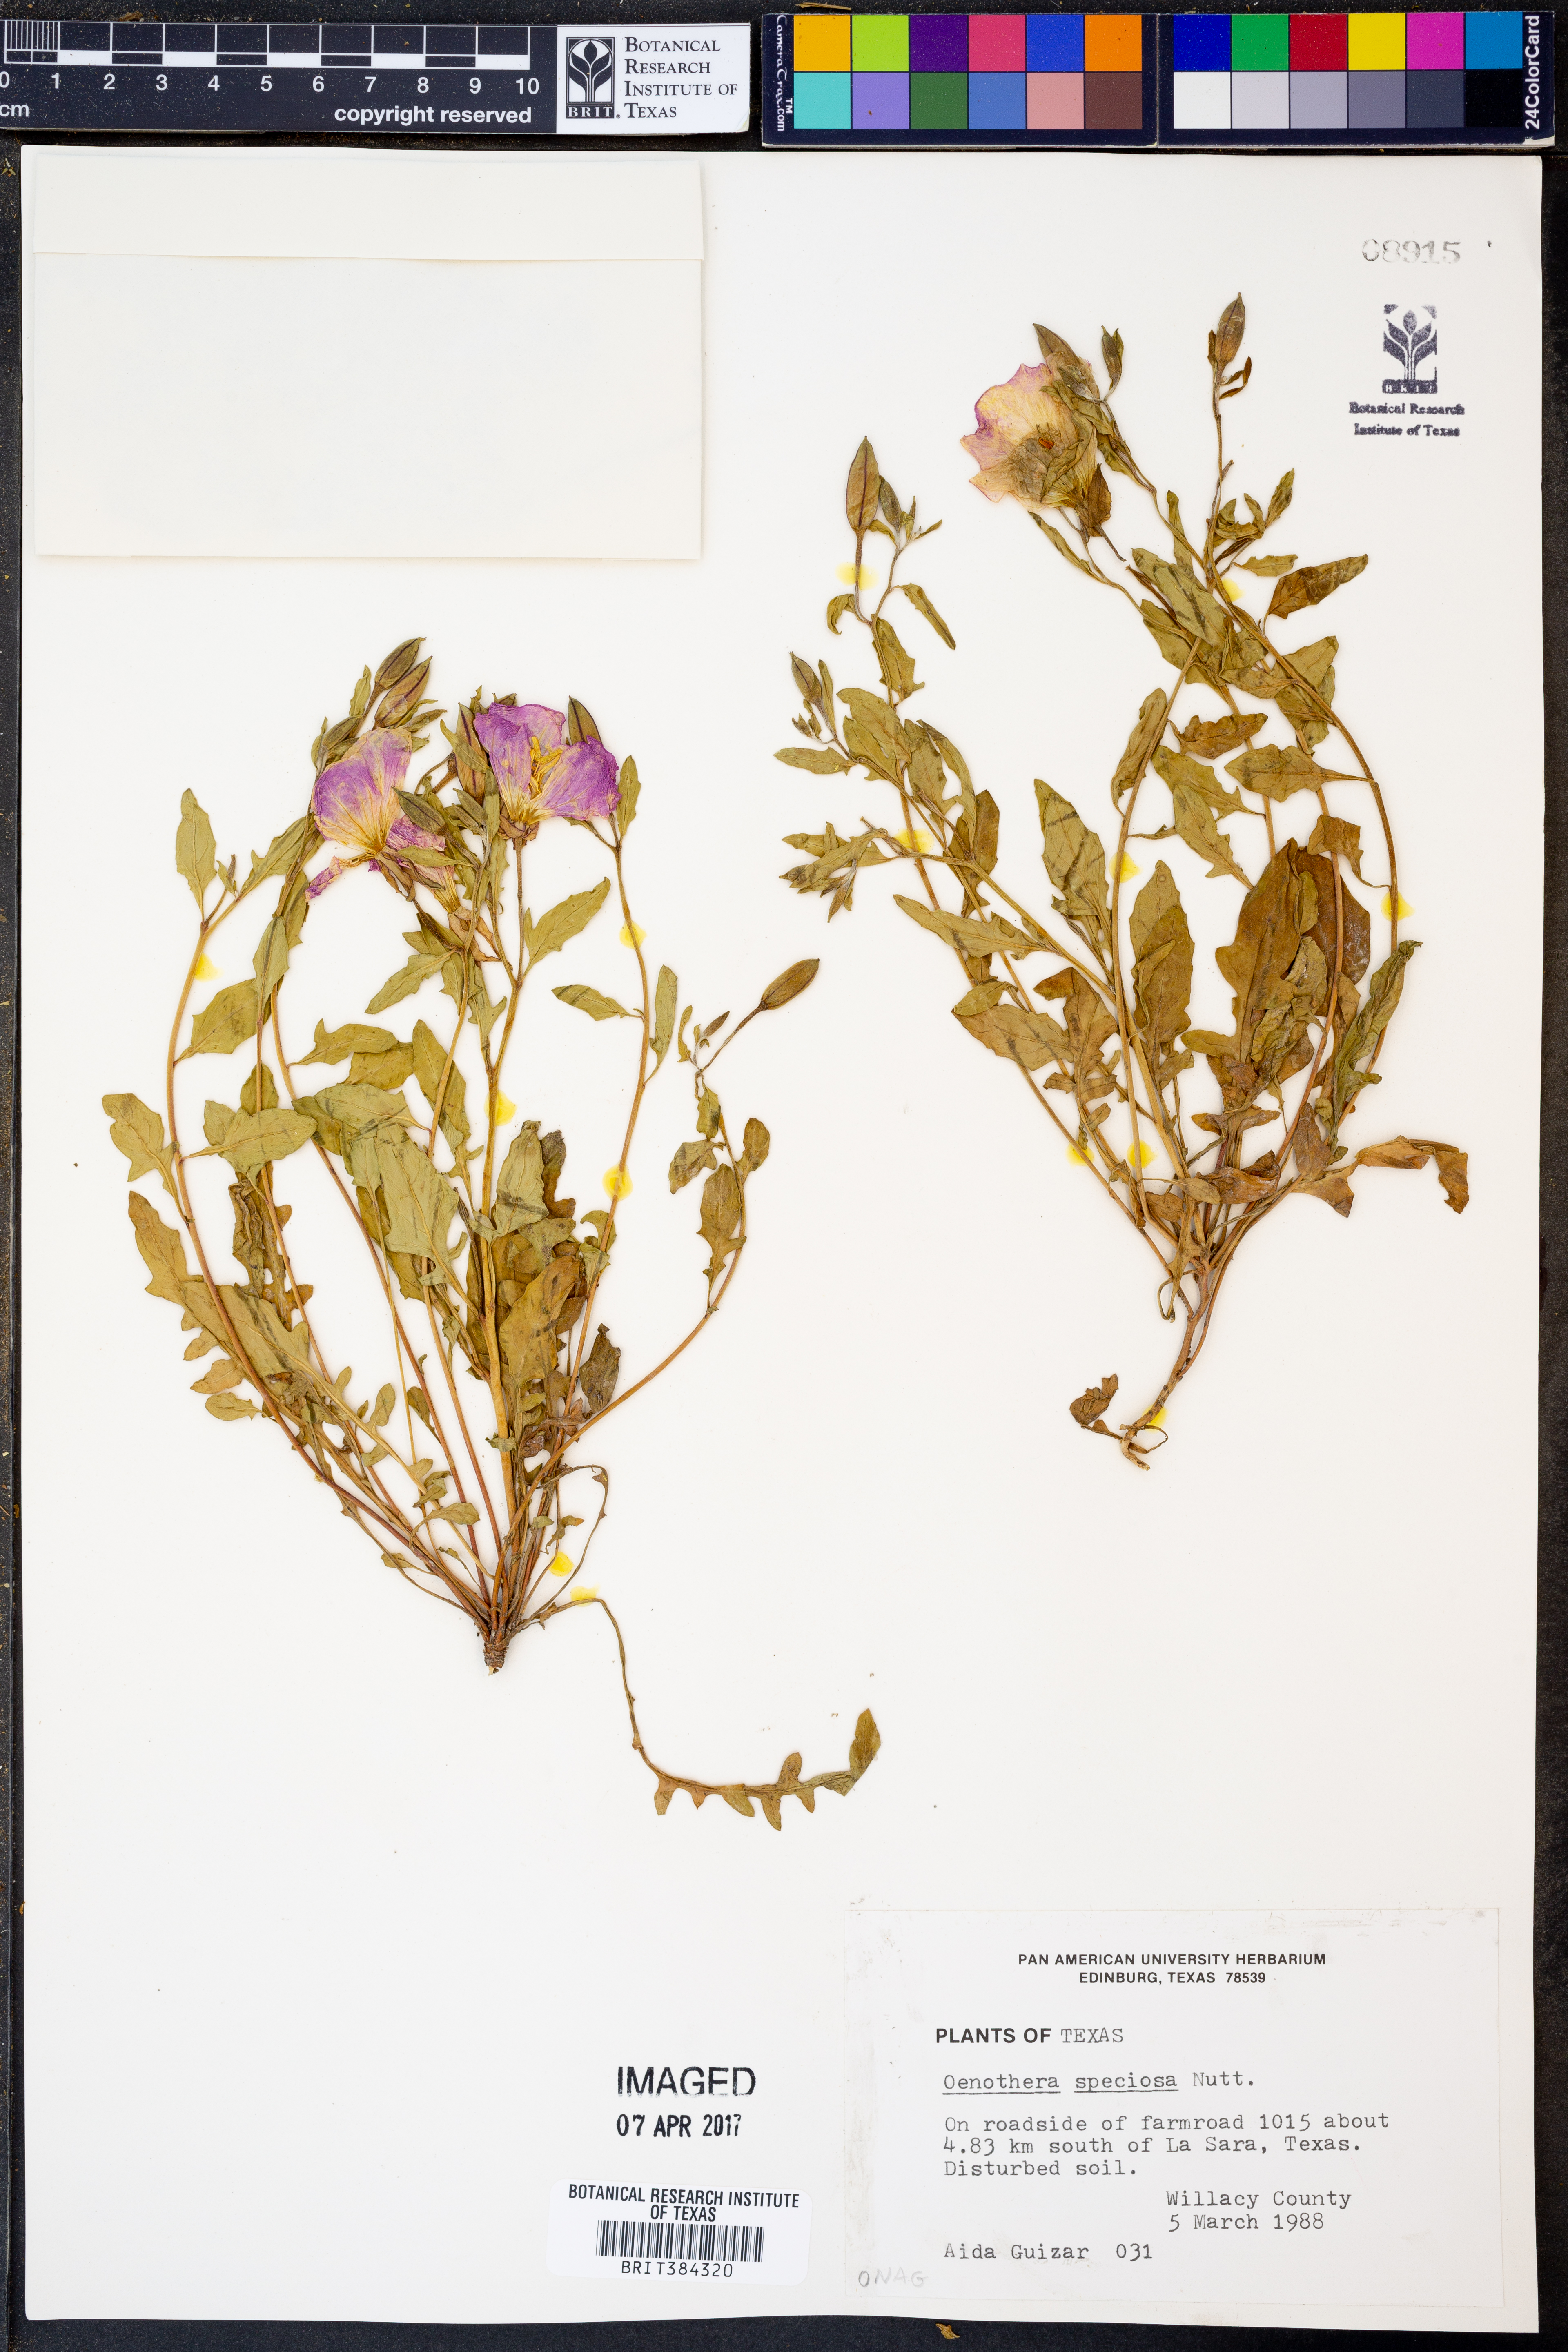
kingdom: Plantae
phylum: Tracheophyta
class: Magnoliopsida
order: Myrtales
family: Onagraceae
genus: Oenothera
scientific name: Oenothera speciosa
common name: White evening-primrose
